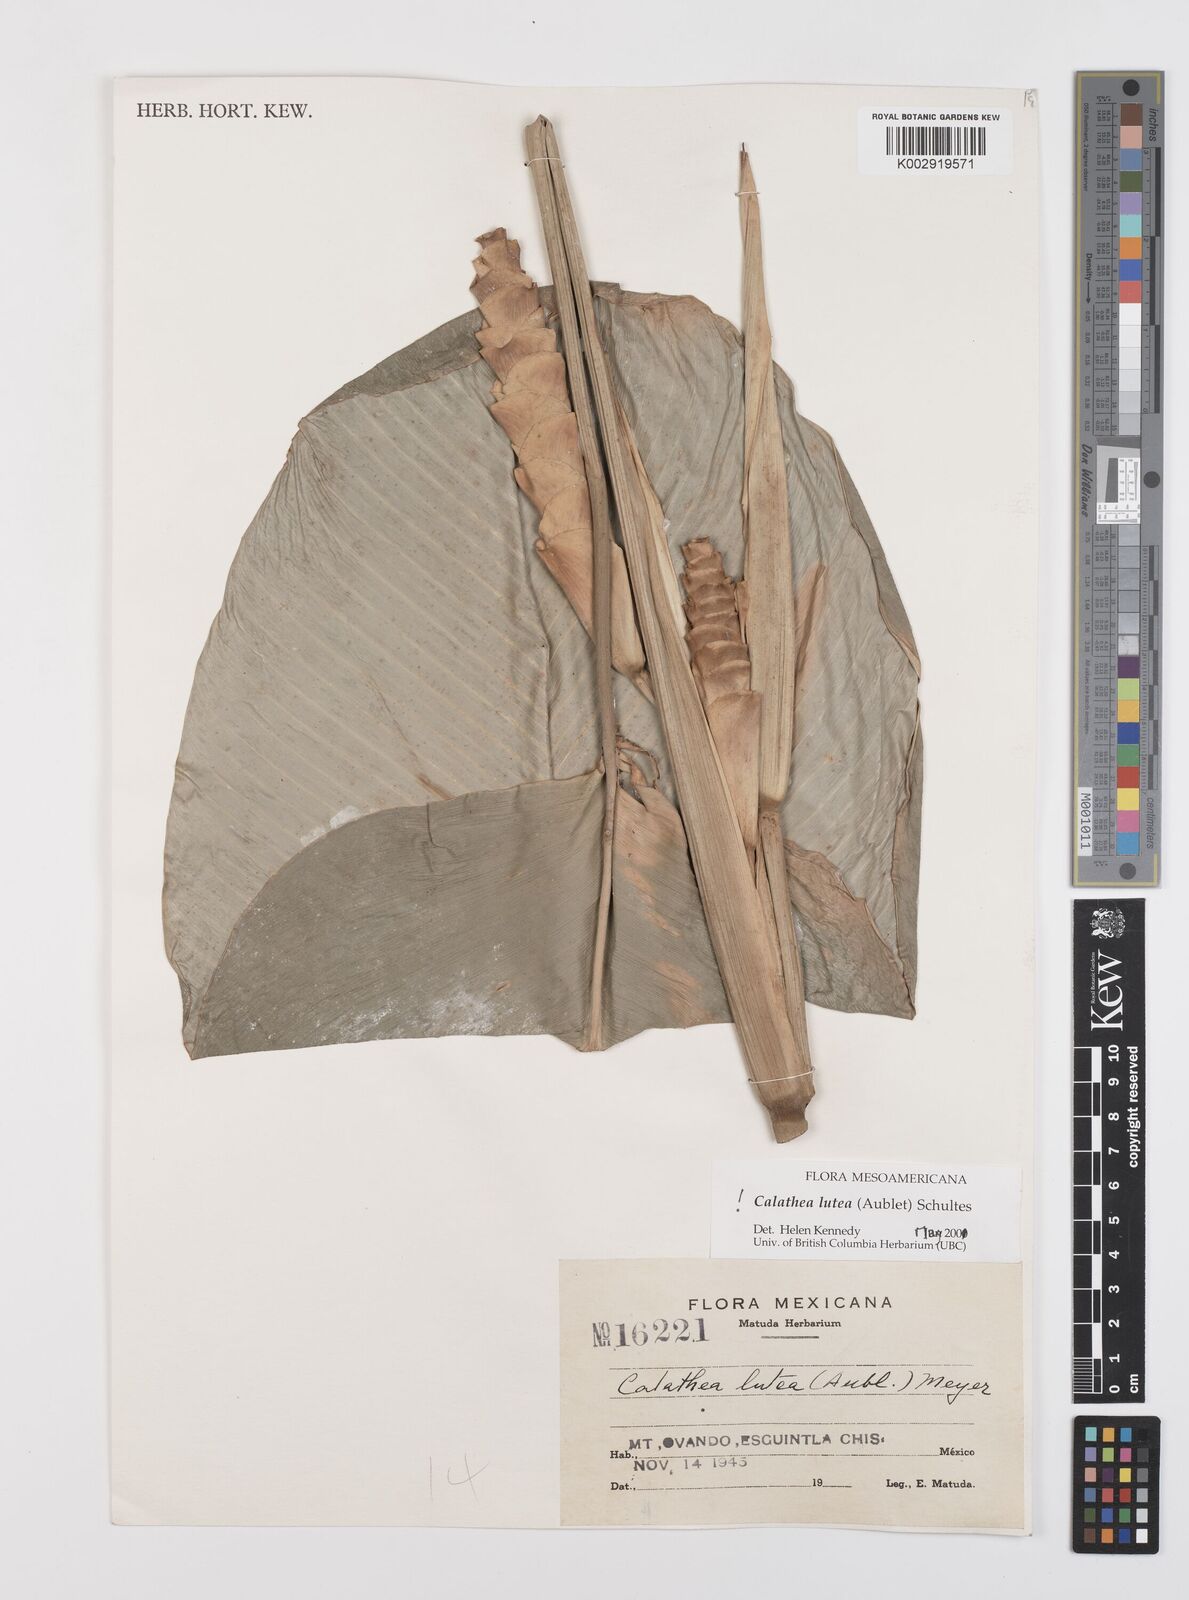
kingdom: Plantae
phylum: Tracheophyta
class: Liliopsida
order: Zingiberales
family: Marantaceae
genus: Calathea
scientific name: Calathea lutea
